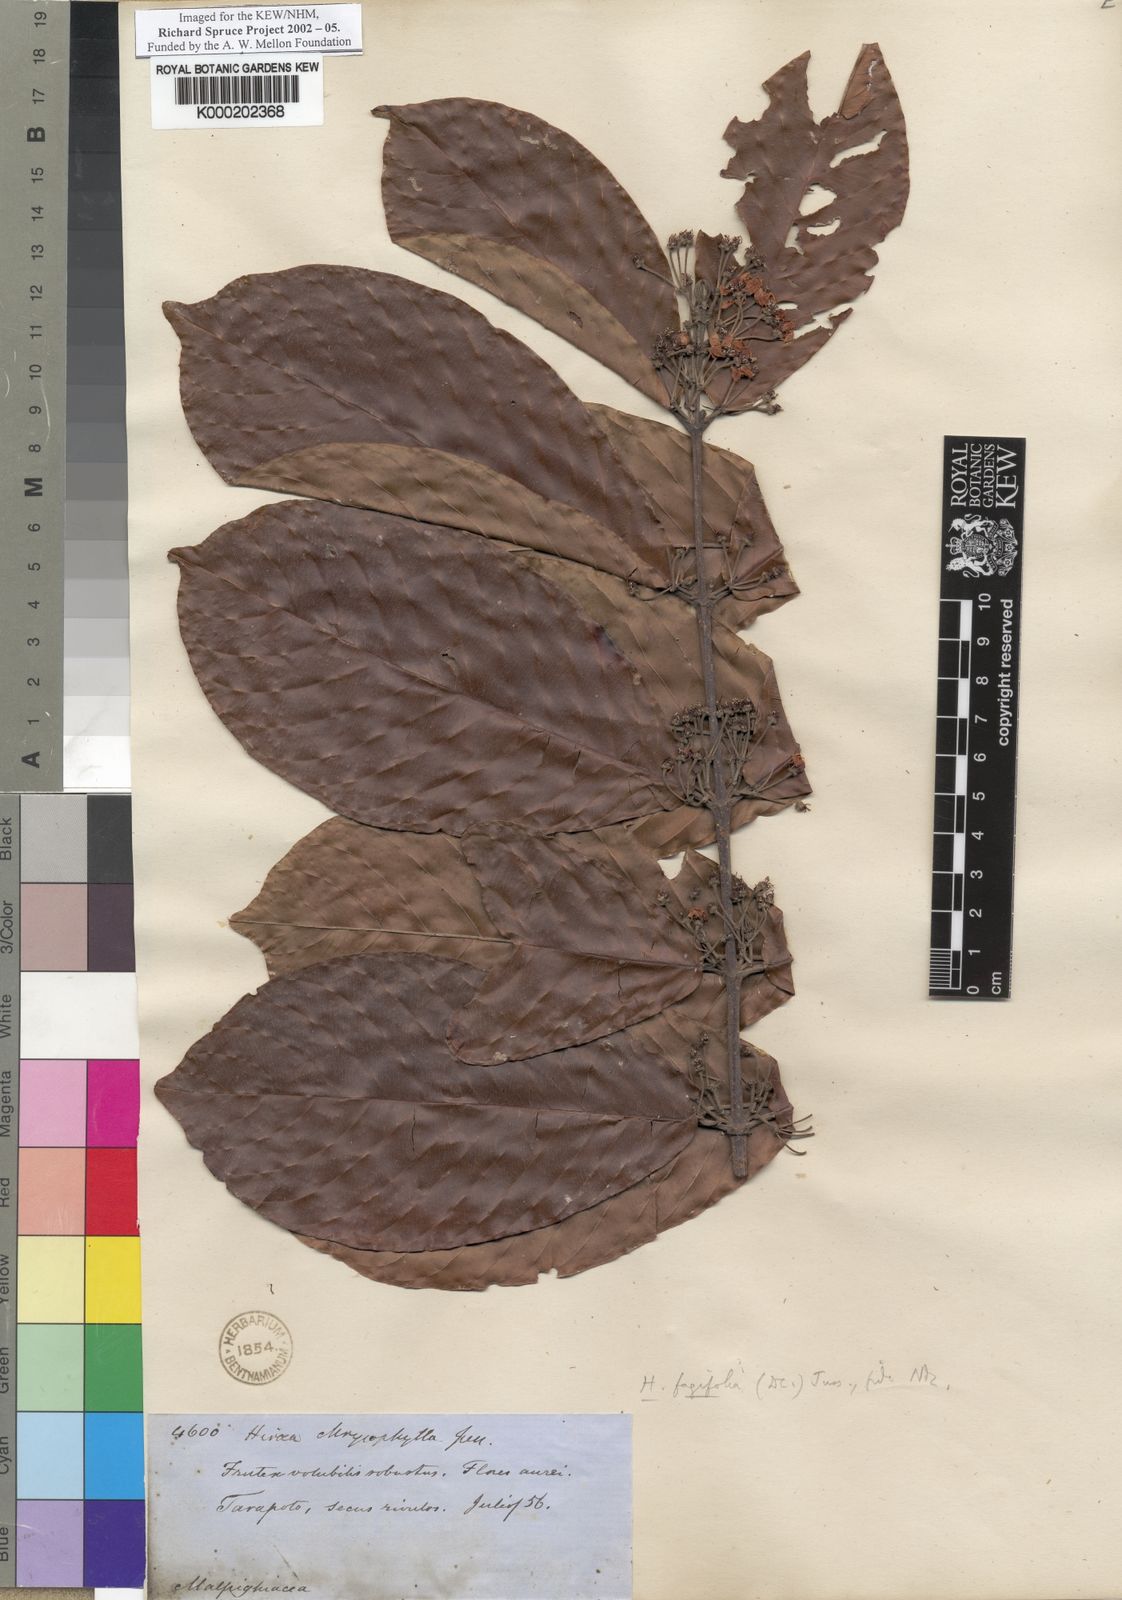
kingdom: Plantae
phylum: Tracheophyta
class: Magnoliopsida
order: Malpighiales
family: Malpighiaceae
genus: Hiraea
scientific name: Hiraea fagifolia
